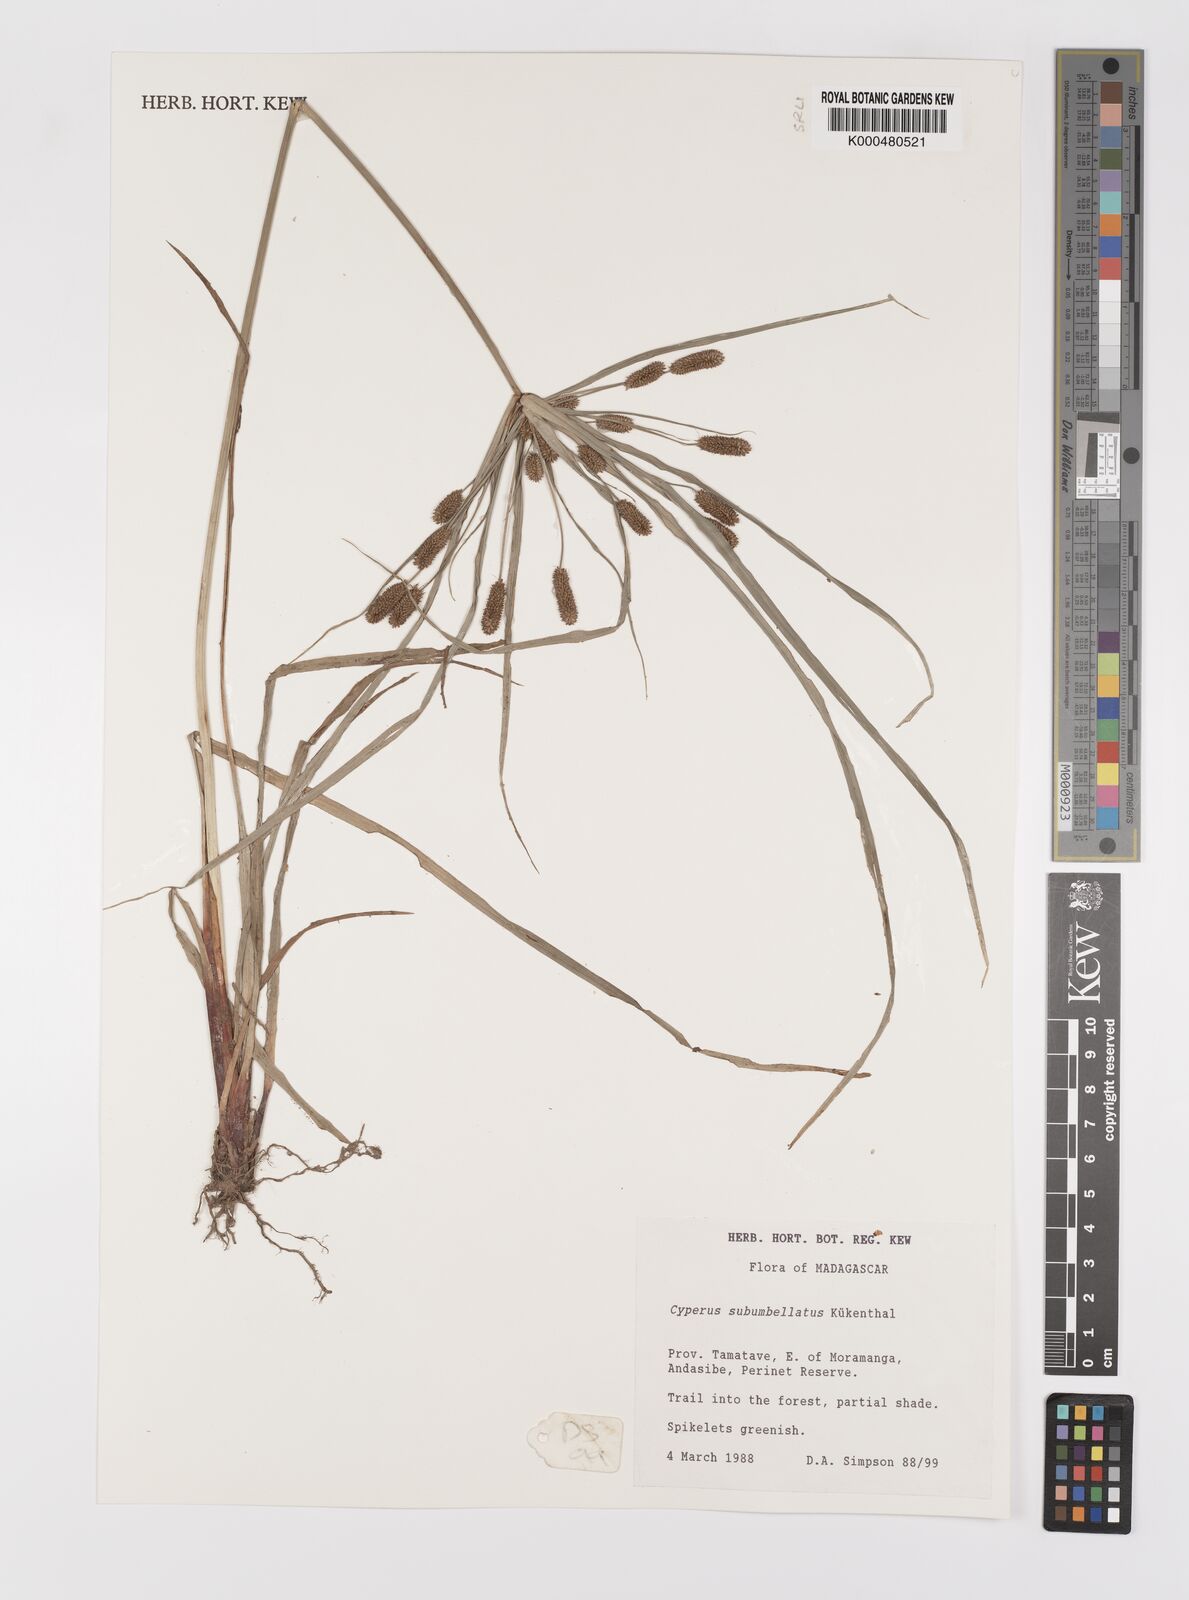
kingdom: Plantae
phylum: Tracheophyta
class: Liliopsida
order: Poales
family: Cyperaceae
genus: Cyperus
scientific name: Cyperus cyperoides
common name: Pacific island flat sedge
